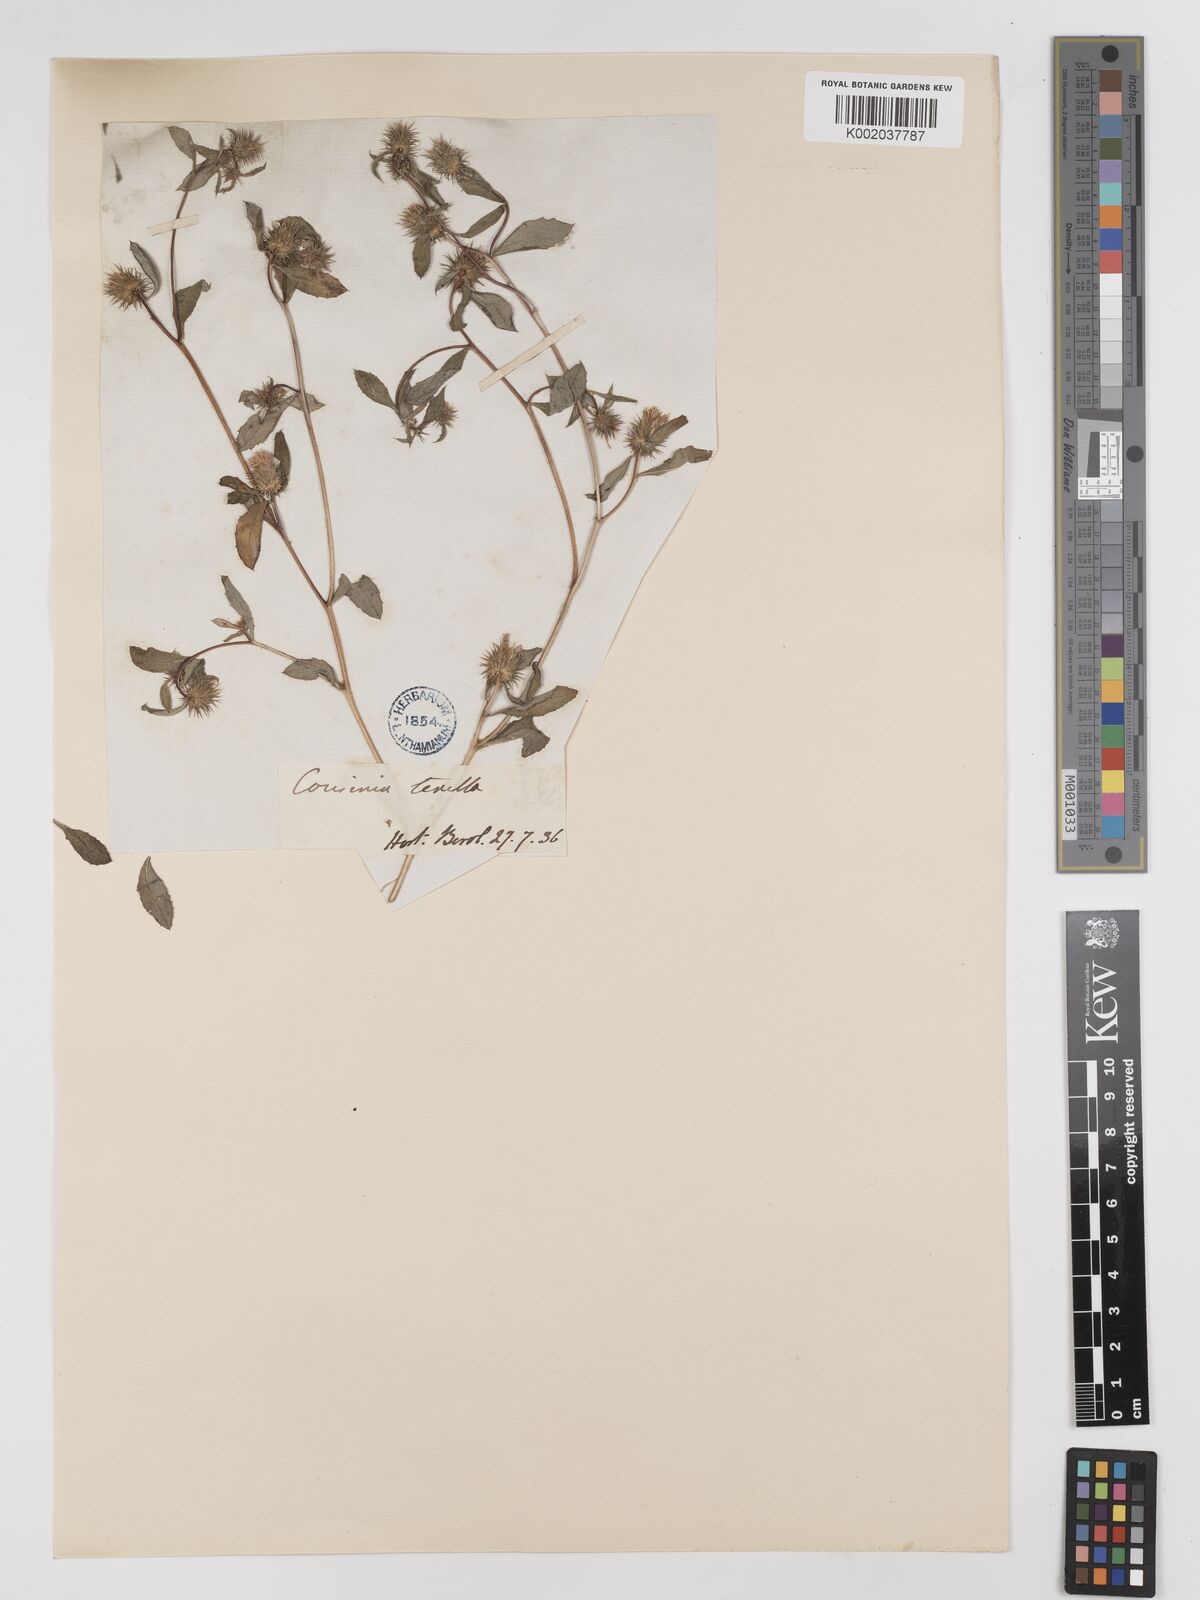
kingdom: Plantae
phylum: Tracheophyta
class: Magnoliopsida
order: Asterales
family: Asteraceae
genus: Cousinia
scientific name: Cousinia tenella
